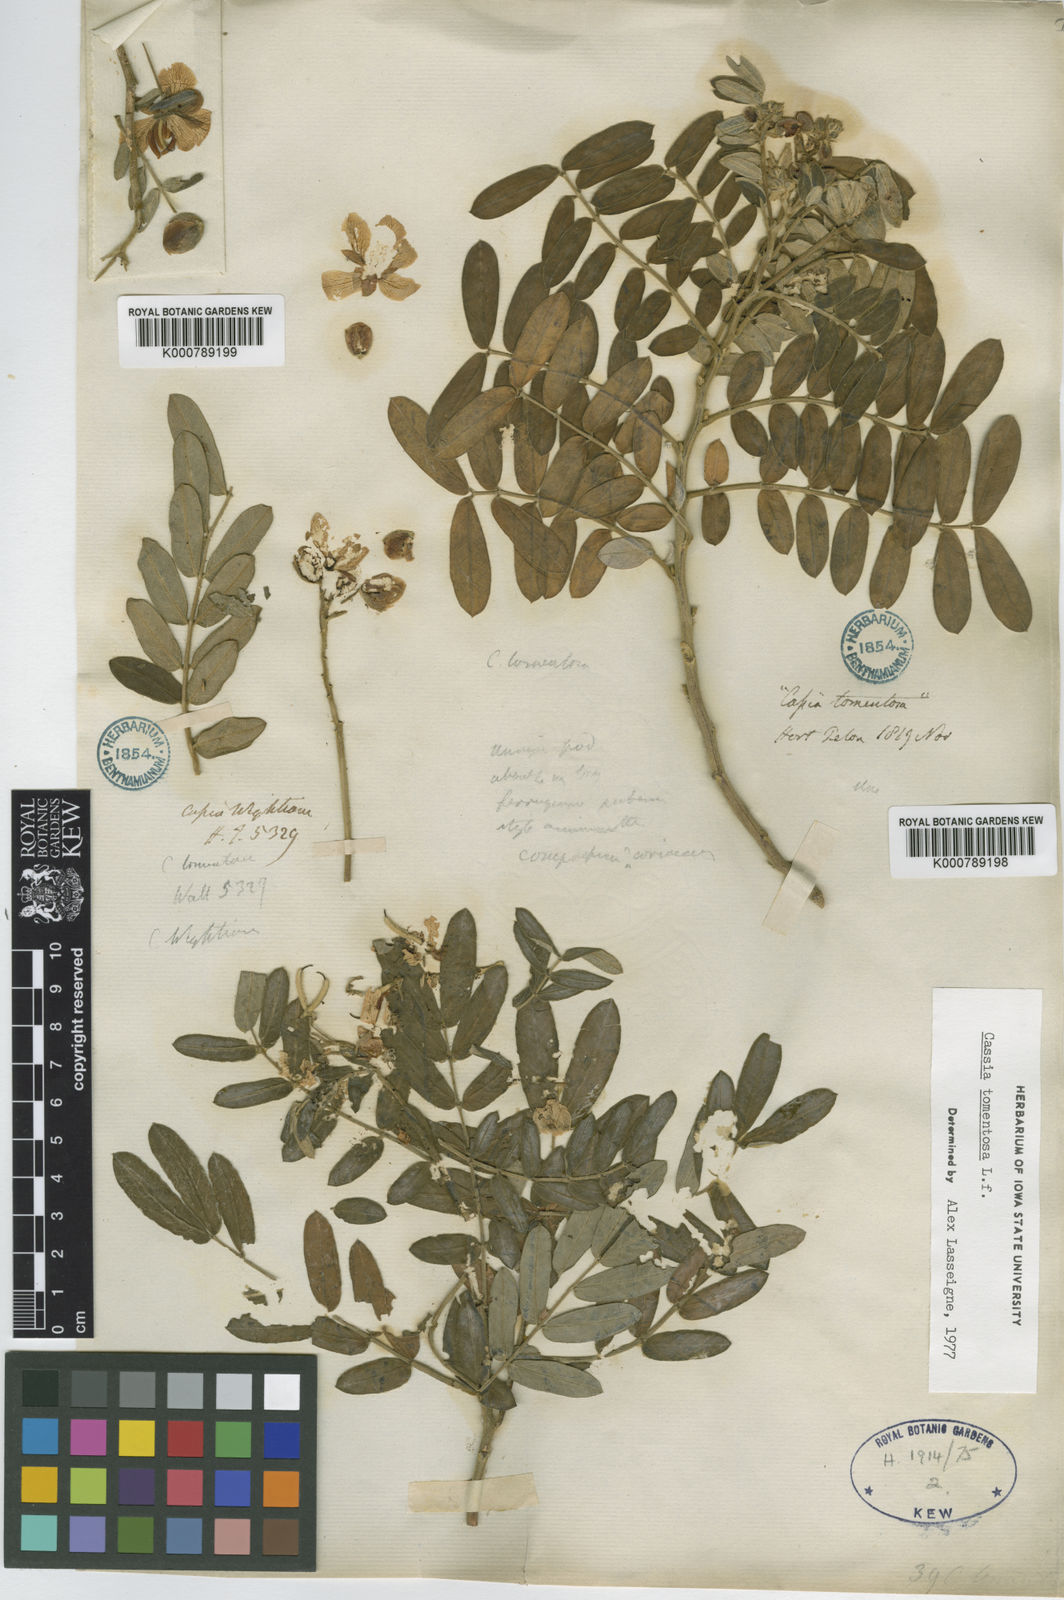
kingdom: Plantae
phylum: Tracheophyta
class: Magnoliopsida
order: Fabales
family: Fabaceae
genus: Senna
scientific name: Senna multiglandulosa
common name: Glandular senna
